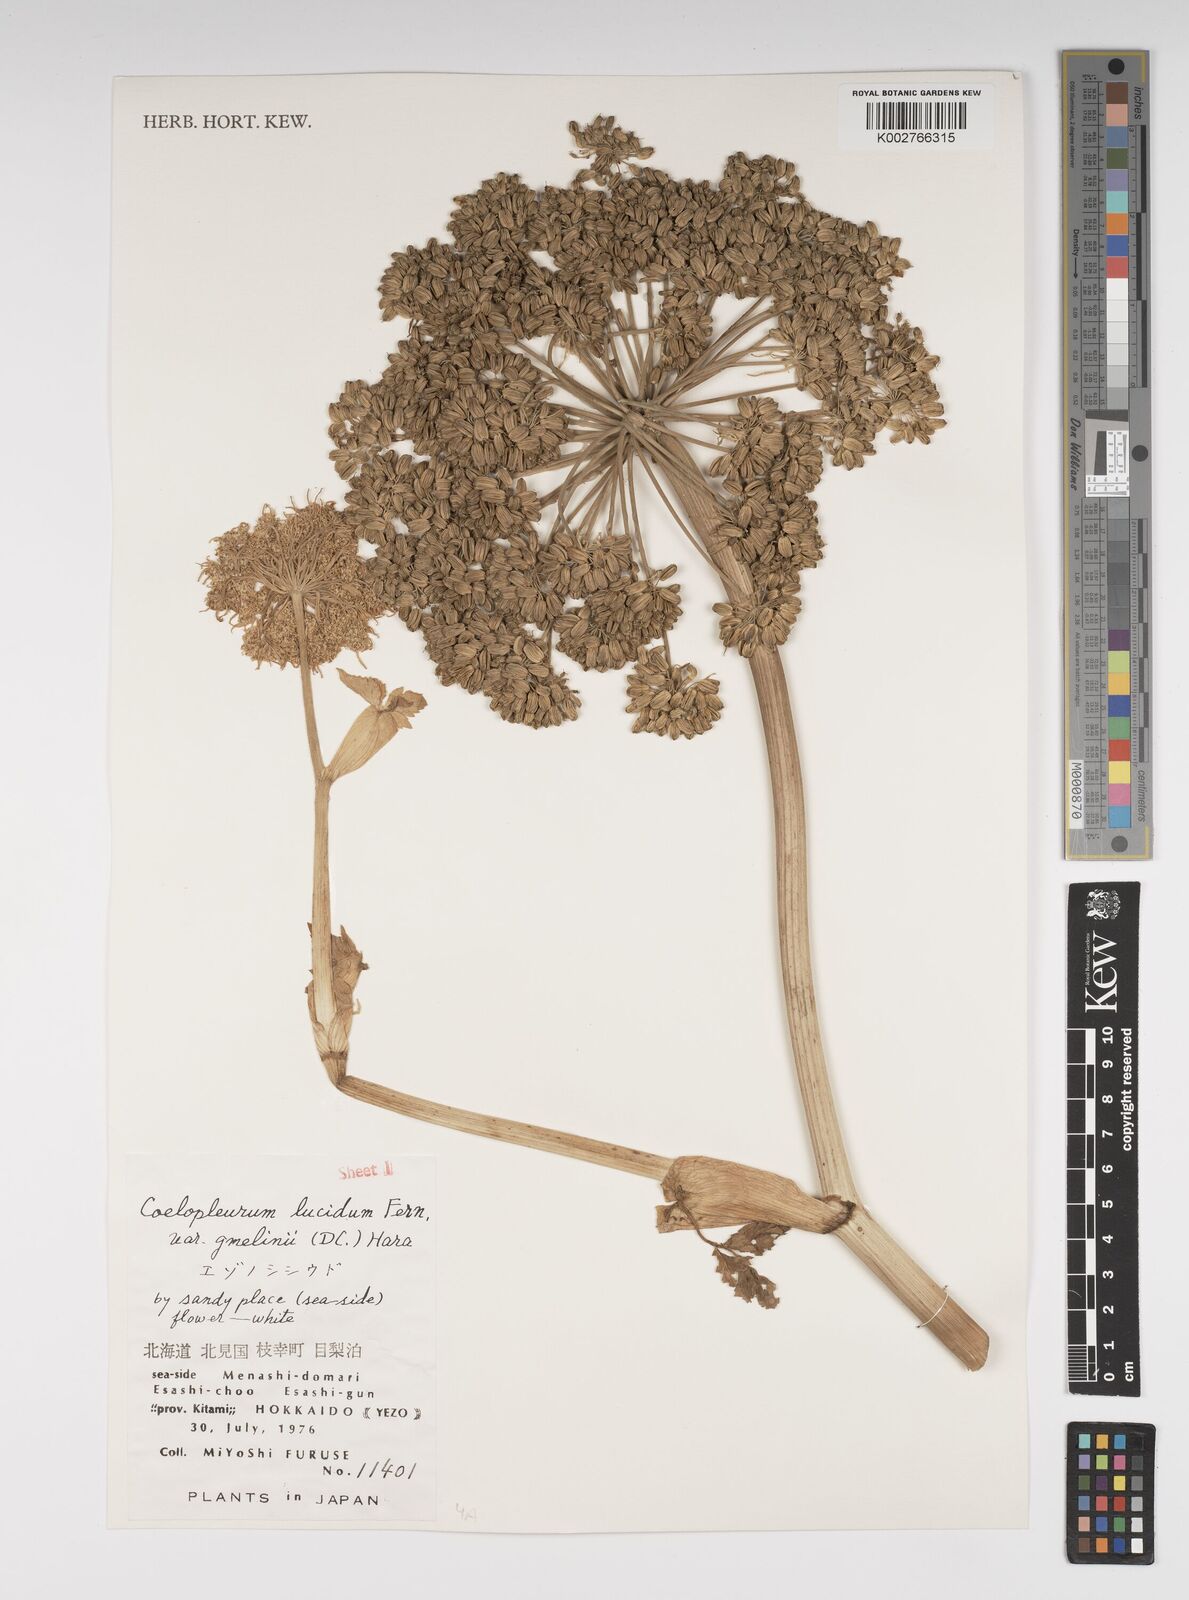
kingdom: Plantae
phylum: Tracheophyta
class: Magnoliopsida
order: Apiales
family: Apiaceae
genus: Angelica
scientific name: Angelica gmelinii
